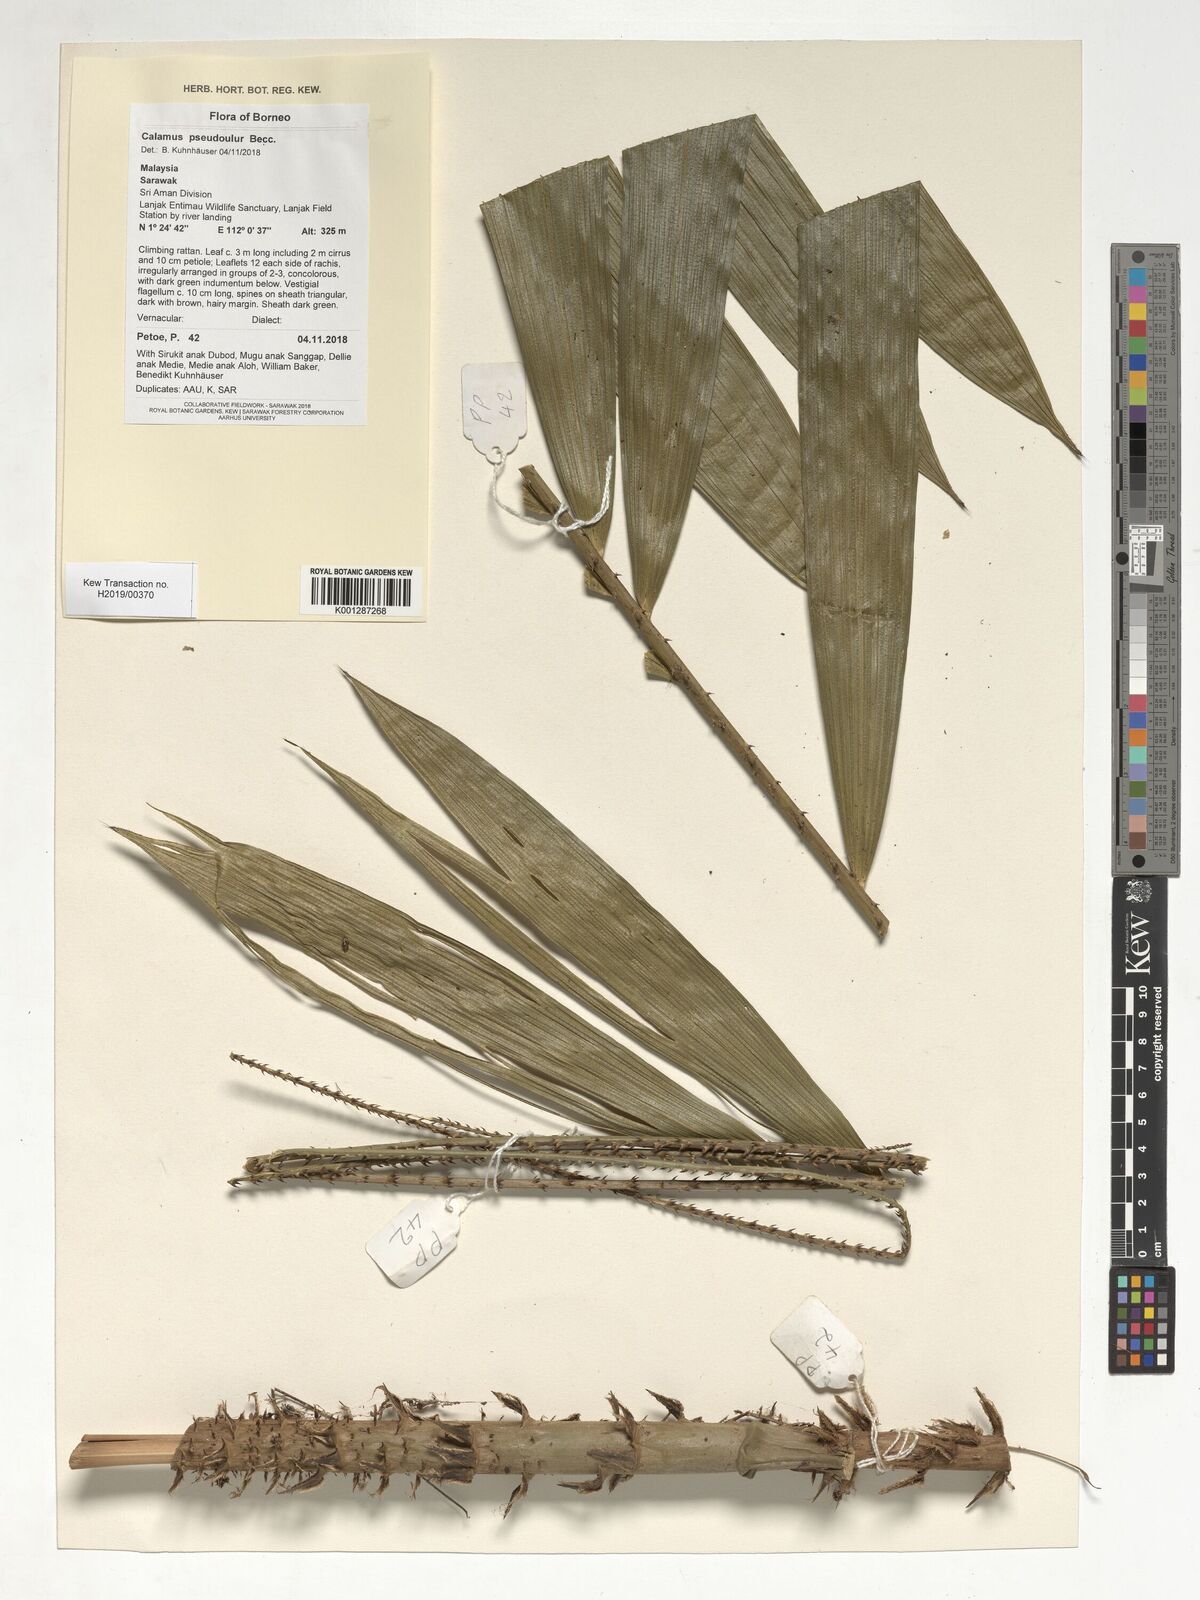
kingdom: Plantae
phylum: Tracheophyta
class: Liliopsida
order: Arecales
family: Arecaceae
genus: Calamus
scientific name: Calamus erioacanthus
